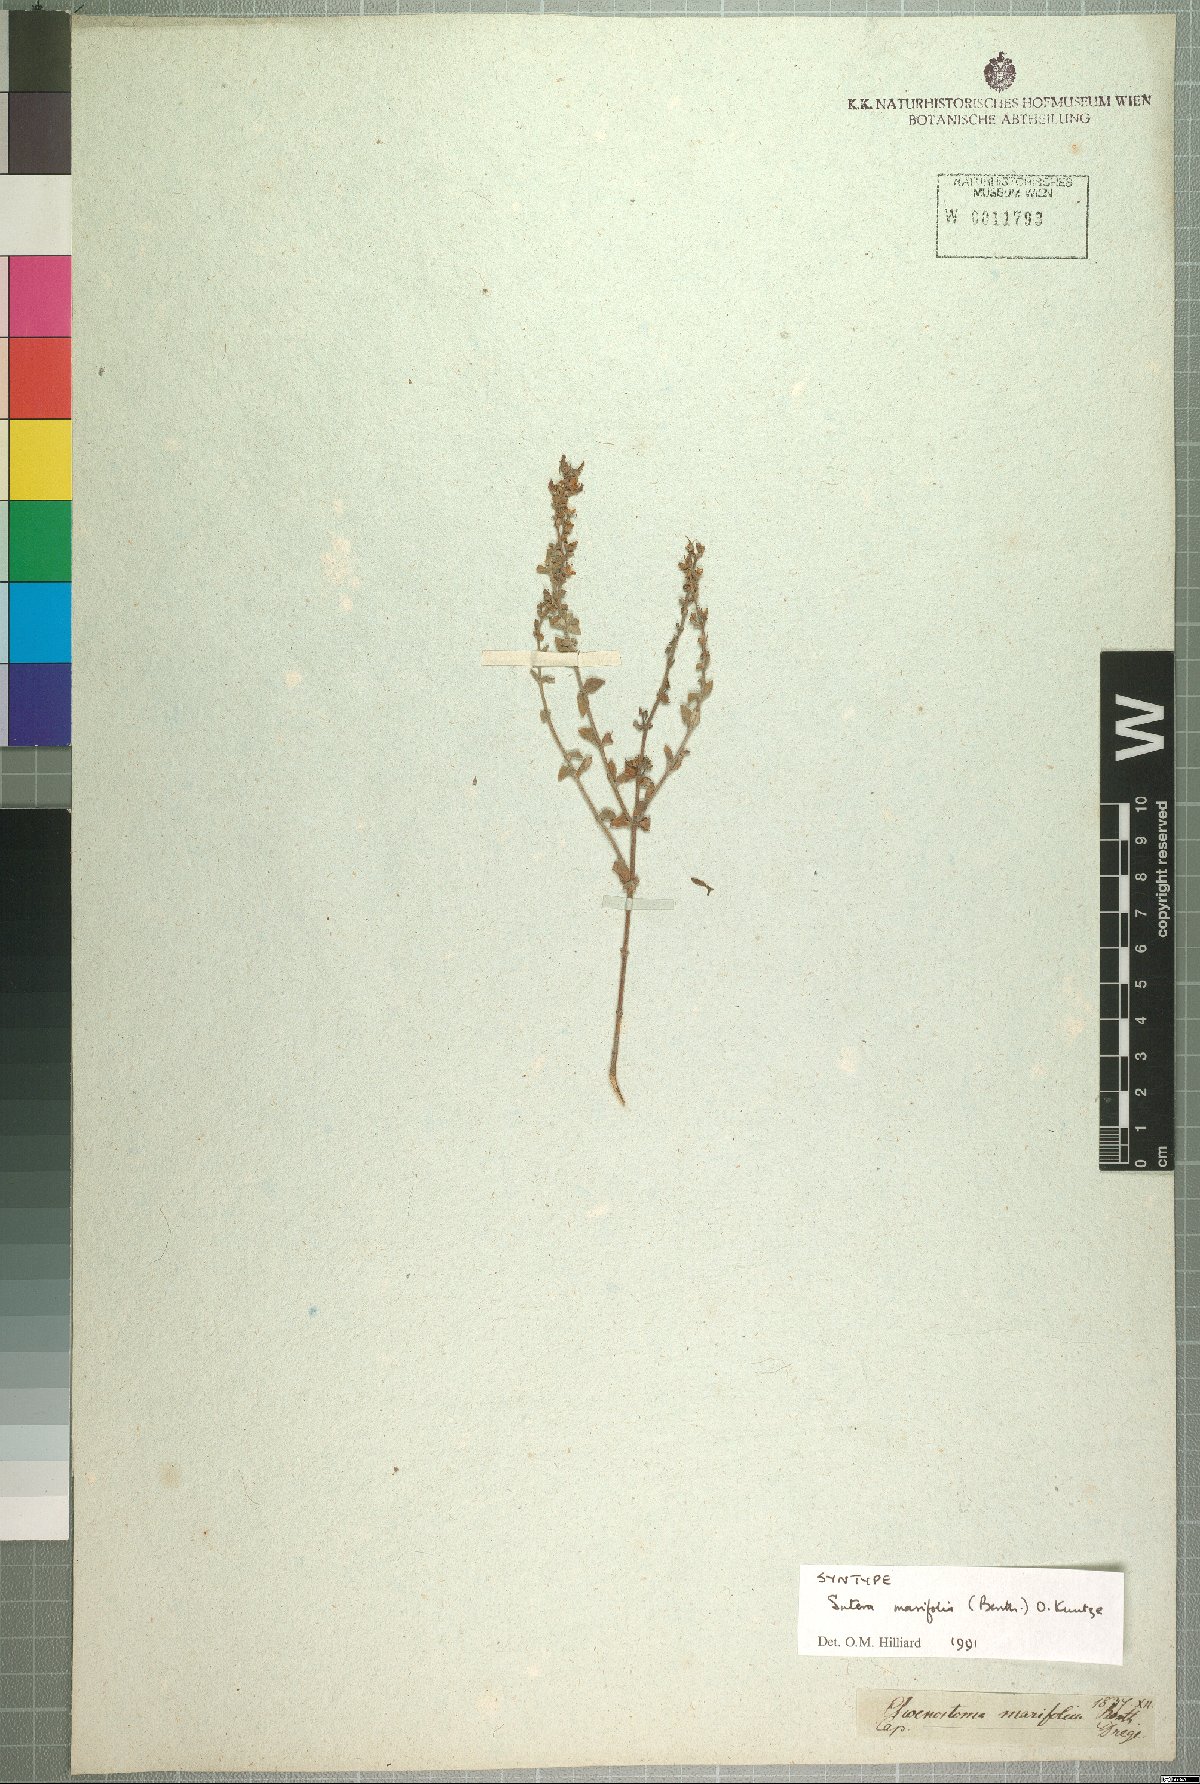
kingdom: Plantae
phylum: Tracheophyta
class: Magnoliopsida
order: Lamiales
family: Scrophulariaceae
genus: Chaenostoma
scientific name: Chaenostoma marifolium
